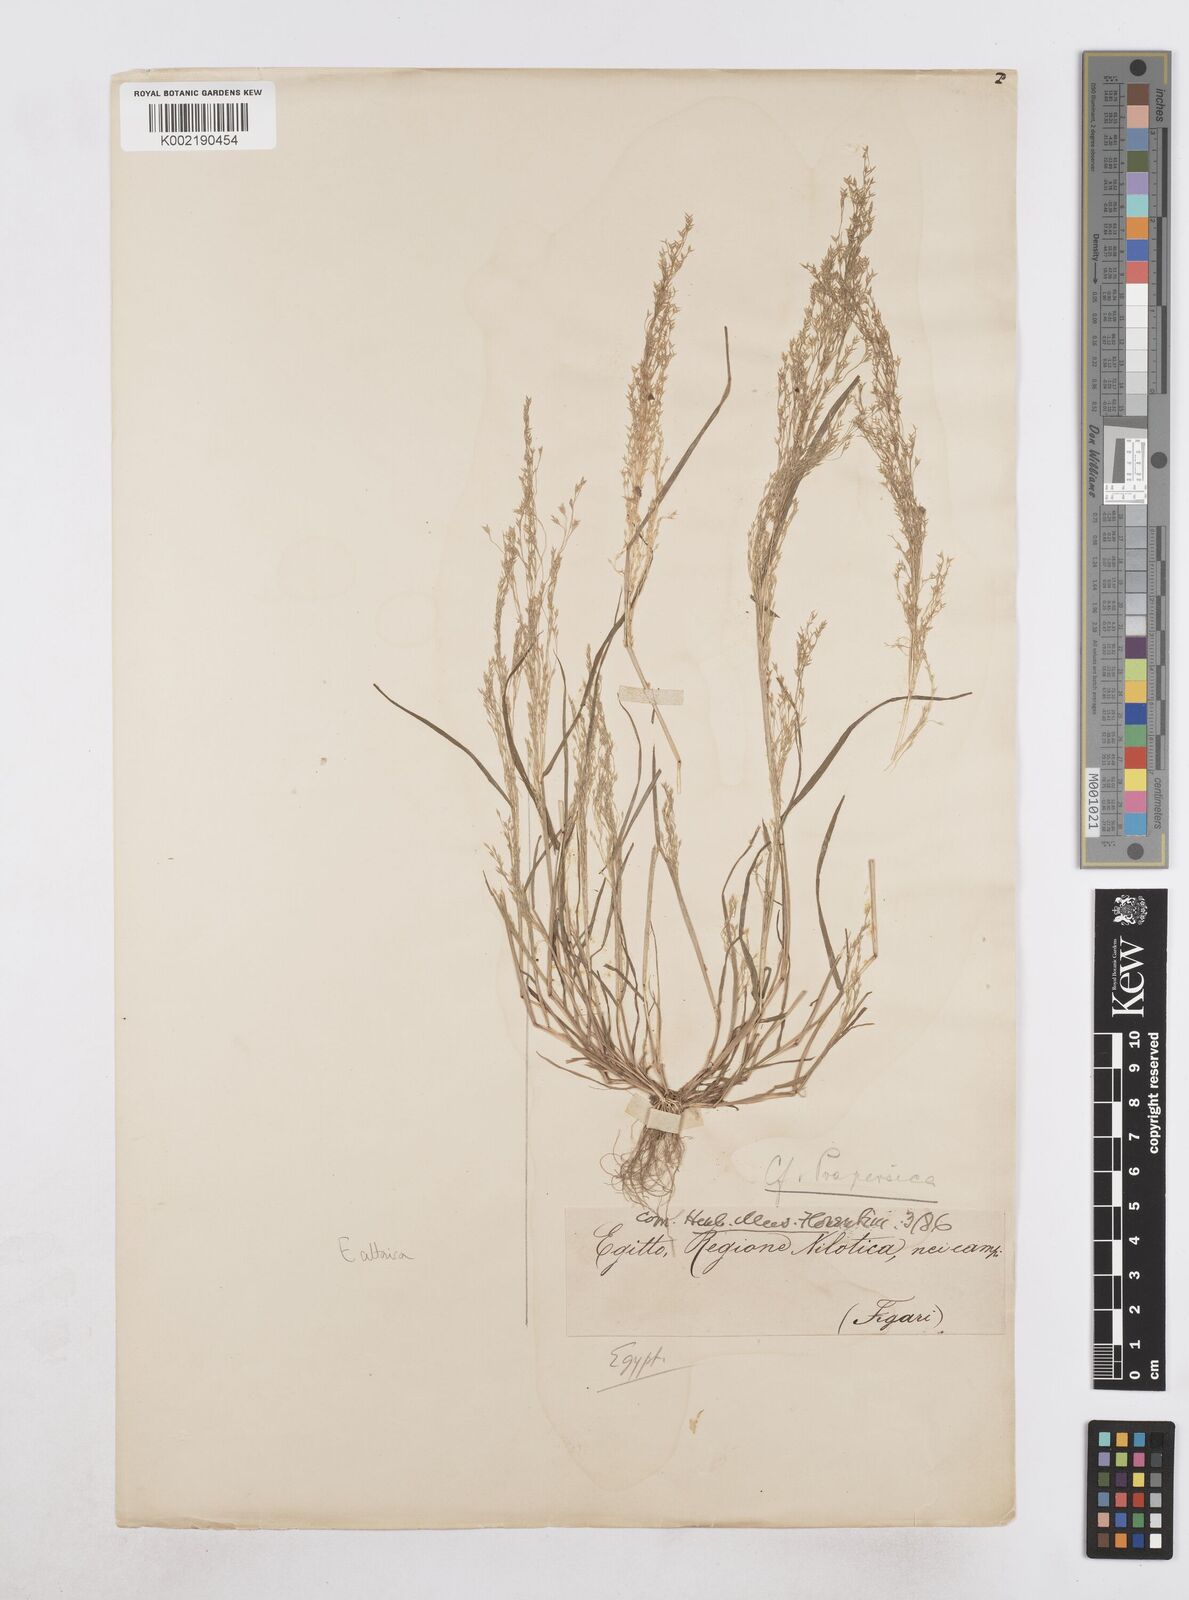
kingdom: Plantae
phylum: Tracheophyta
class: Liliopsida
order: Poales
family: Poaceae
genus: Poa
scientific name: Poa diaphora
